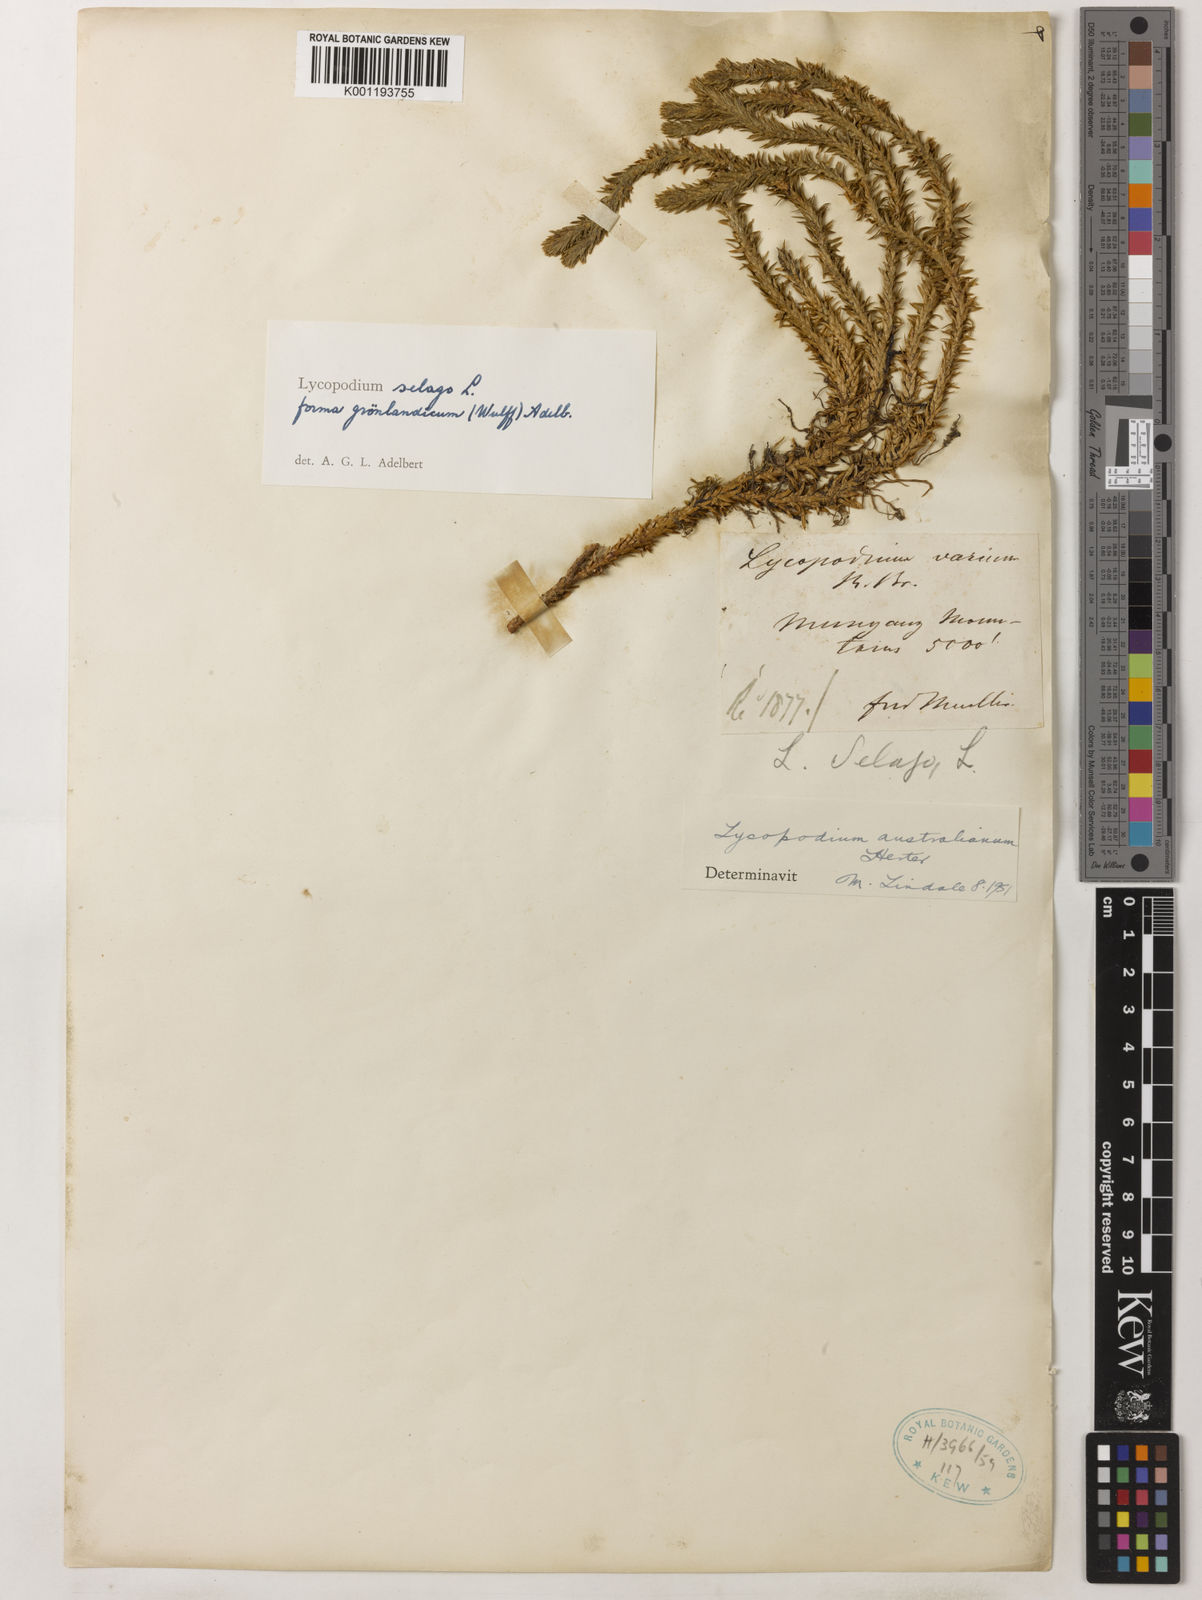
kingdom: Plantae
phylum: Tracheophyta
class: Lycopodiopsida
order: Lycopodiales
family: Lycopodiaceae
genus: Huperzia
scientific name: Huperzia australiana
